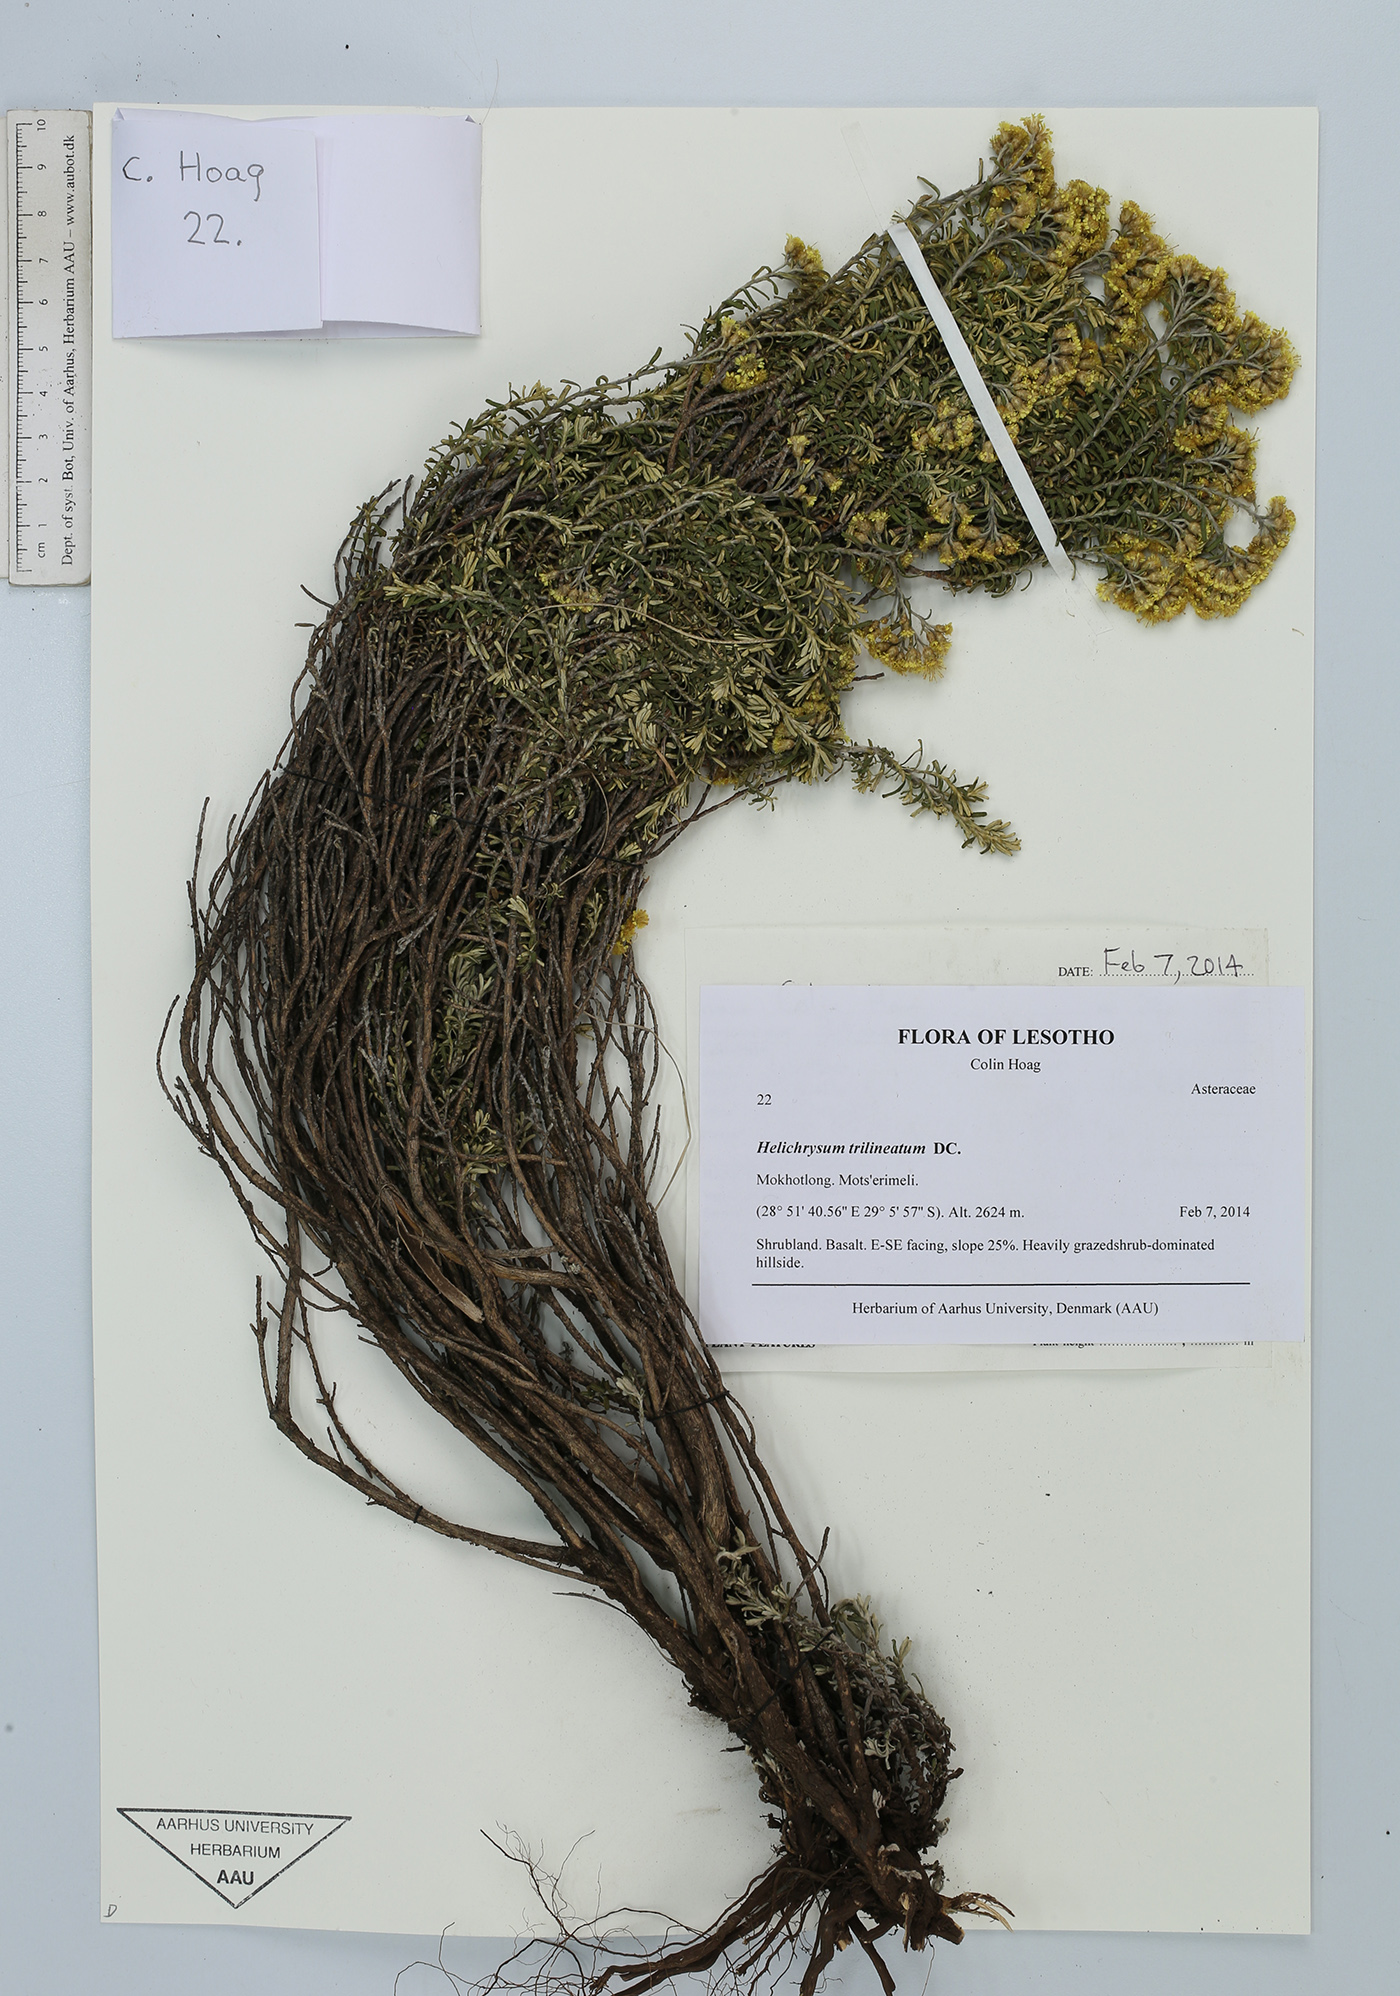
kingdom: Plantae
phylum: Tracheophyta
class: Magnoliopsida
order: Asterales
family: Asteraceae
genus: Helichrysum
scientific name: Helichrysum trilineatum
